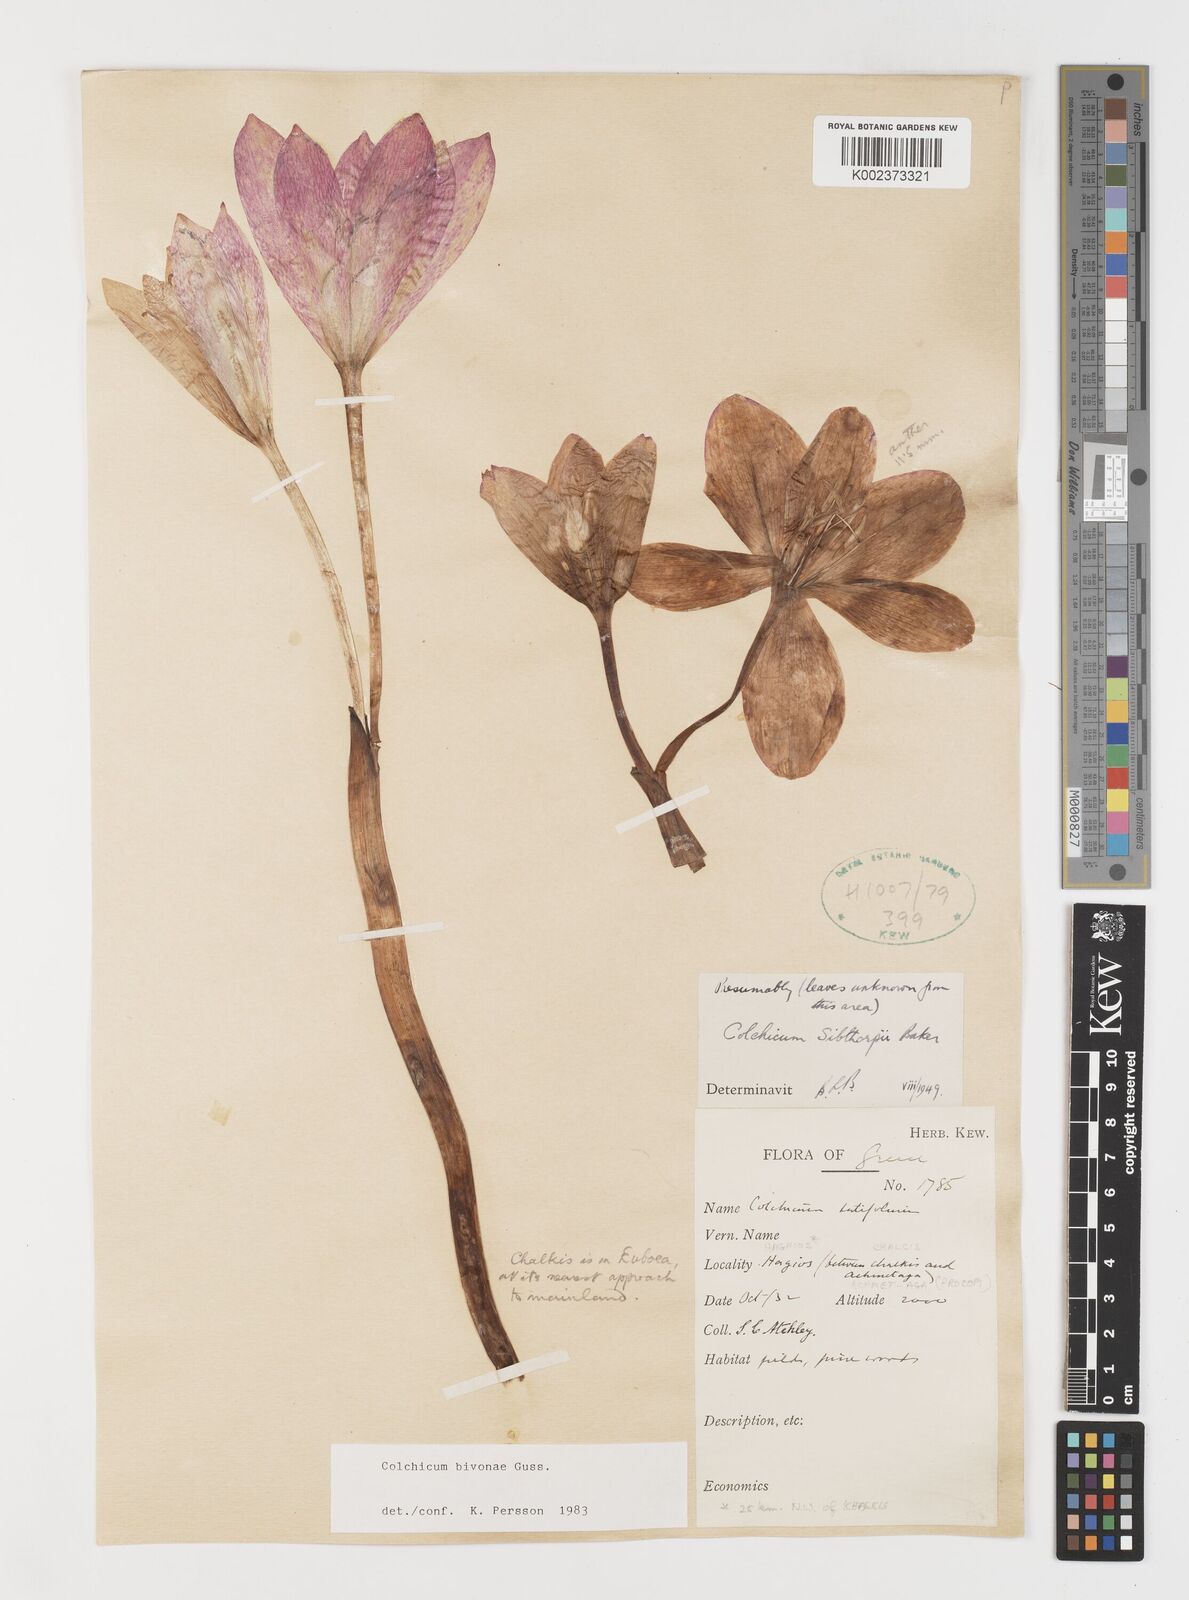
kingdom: Plantae
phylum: Tracheophyta
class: Liliopsida
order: Liliales
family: Colchicaceae
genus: Colchicum
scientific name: Colchicum bivonae
